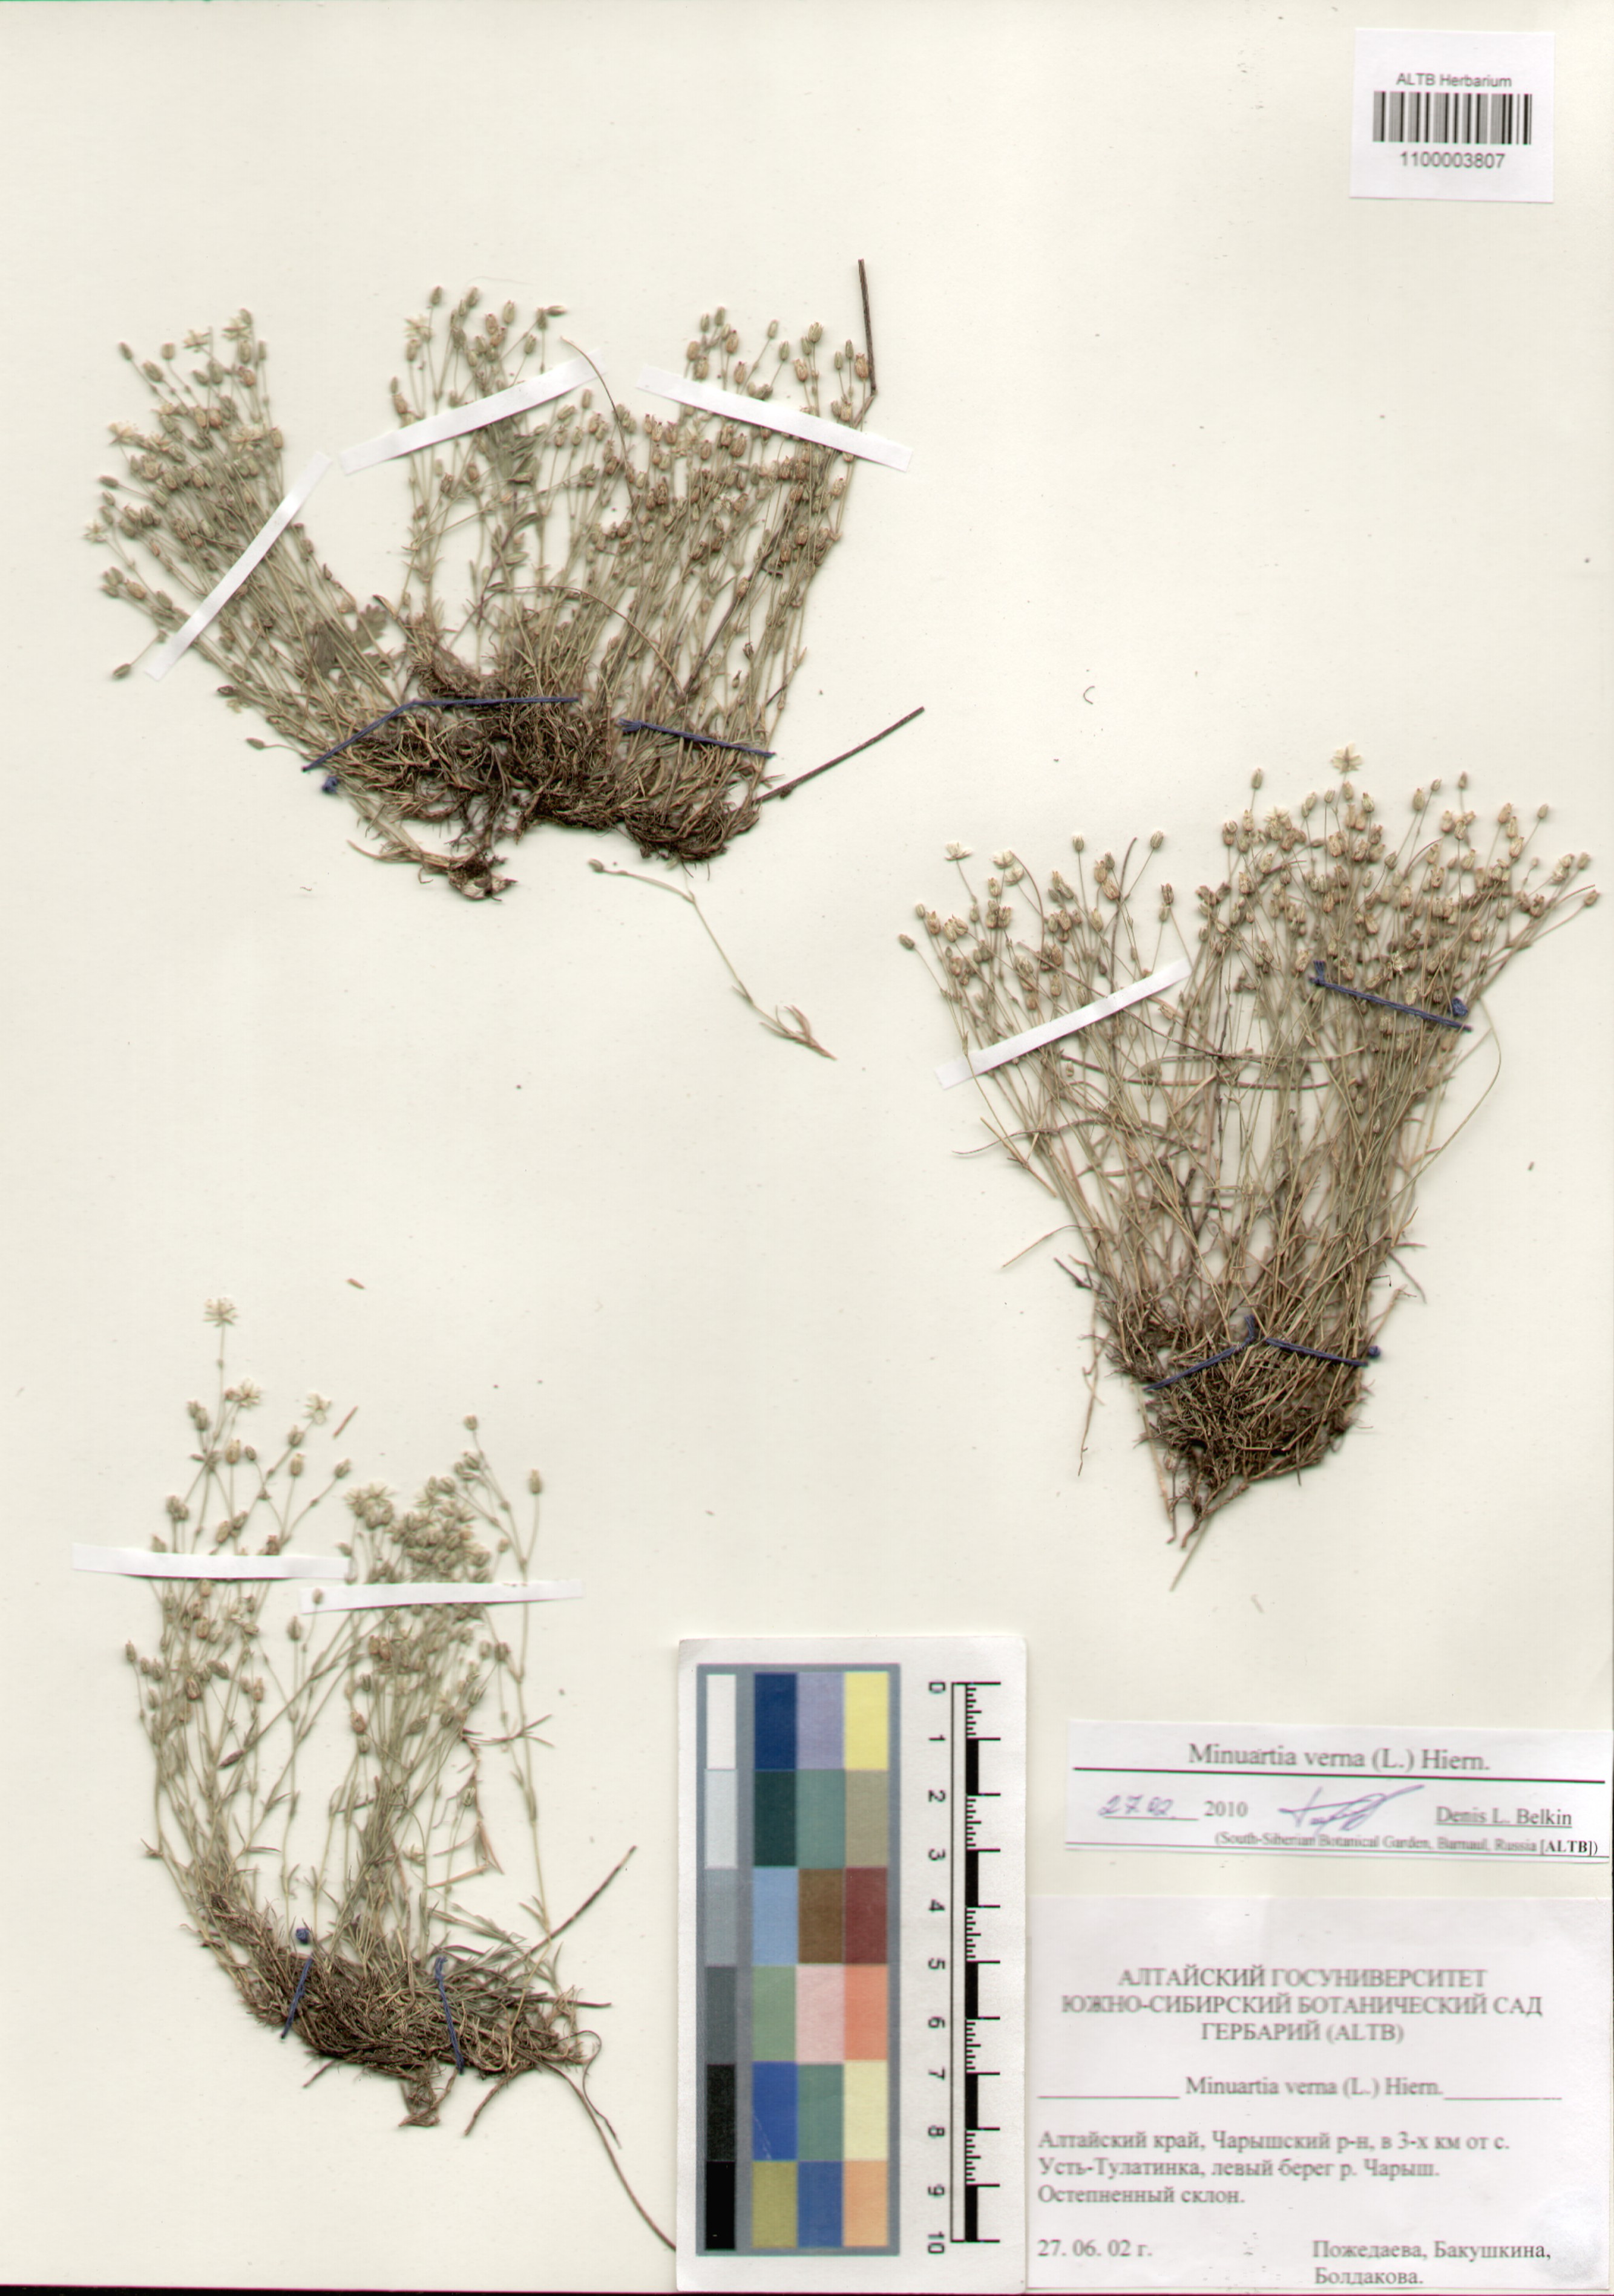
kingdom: Plantae
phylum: Tracheophyta
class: Magnoliopsida
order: Caryophyllales
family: Caryophyllaceae
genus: Sabulina
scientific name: Sabulina verna
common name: Spring sandwort
